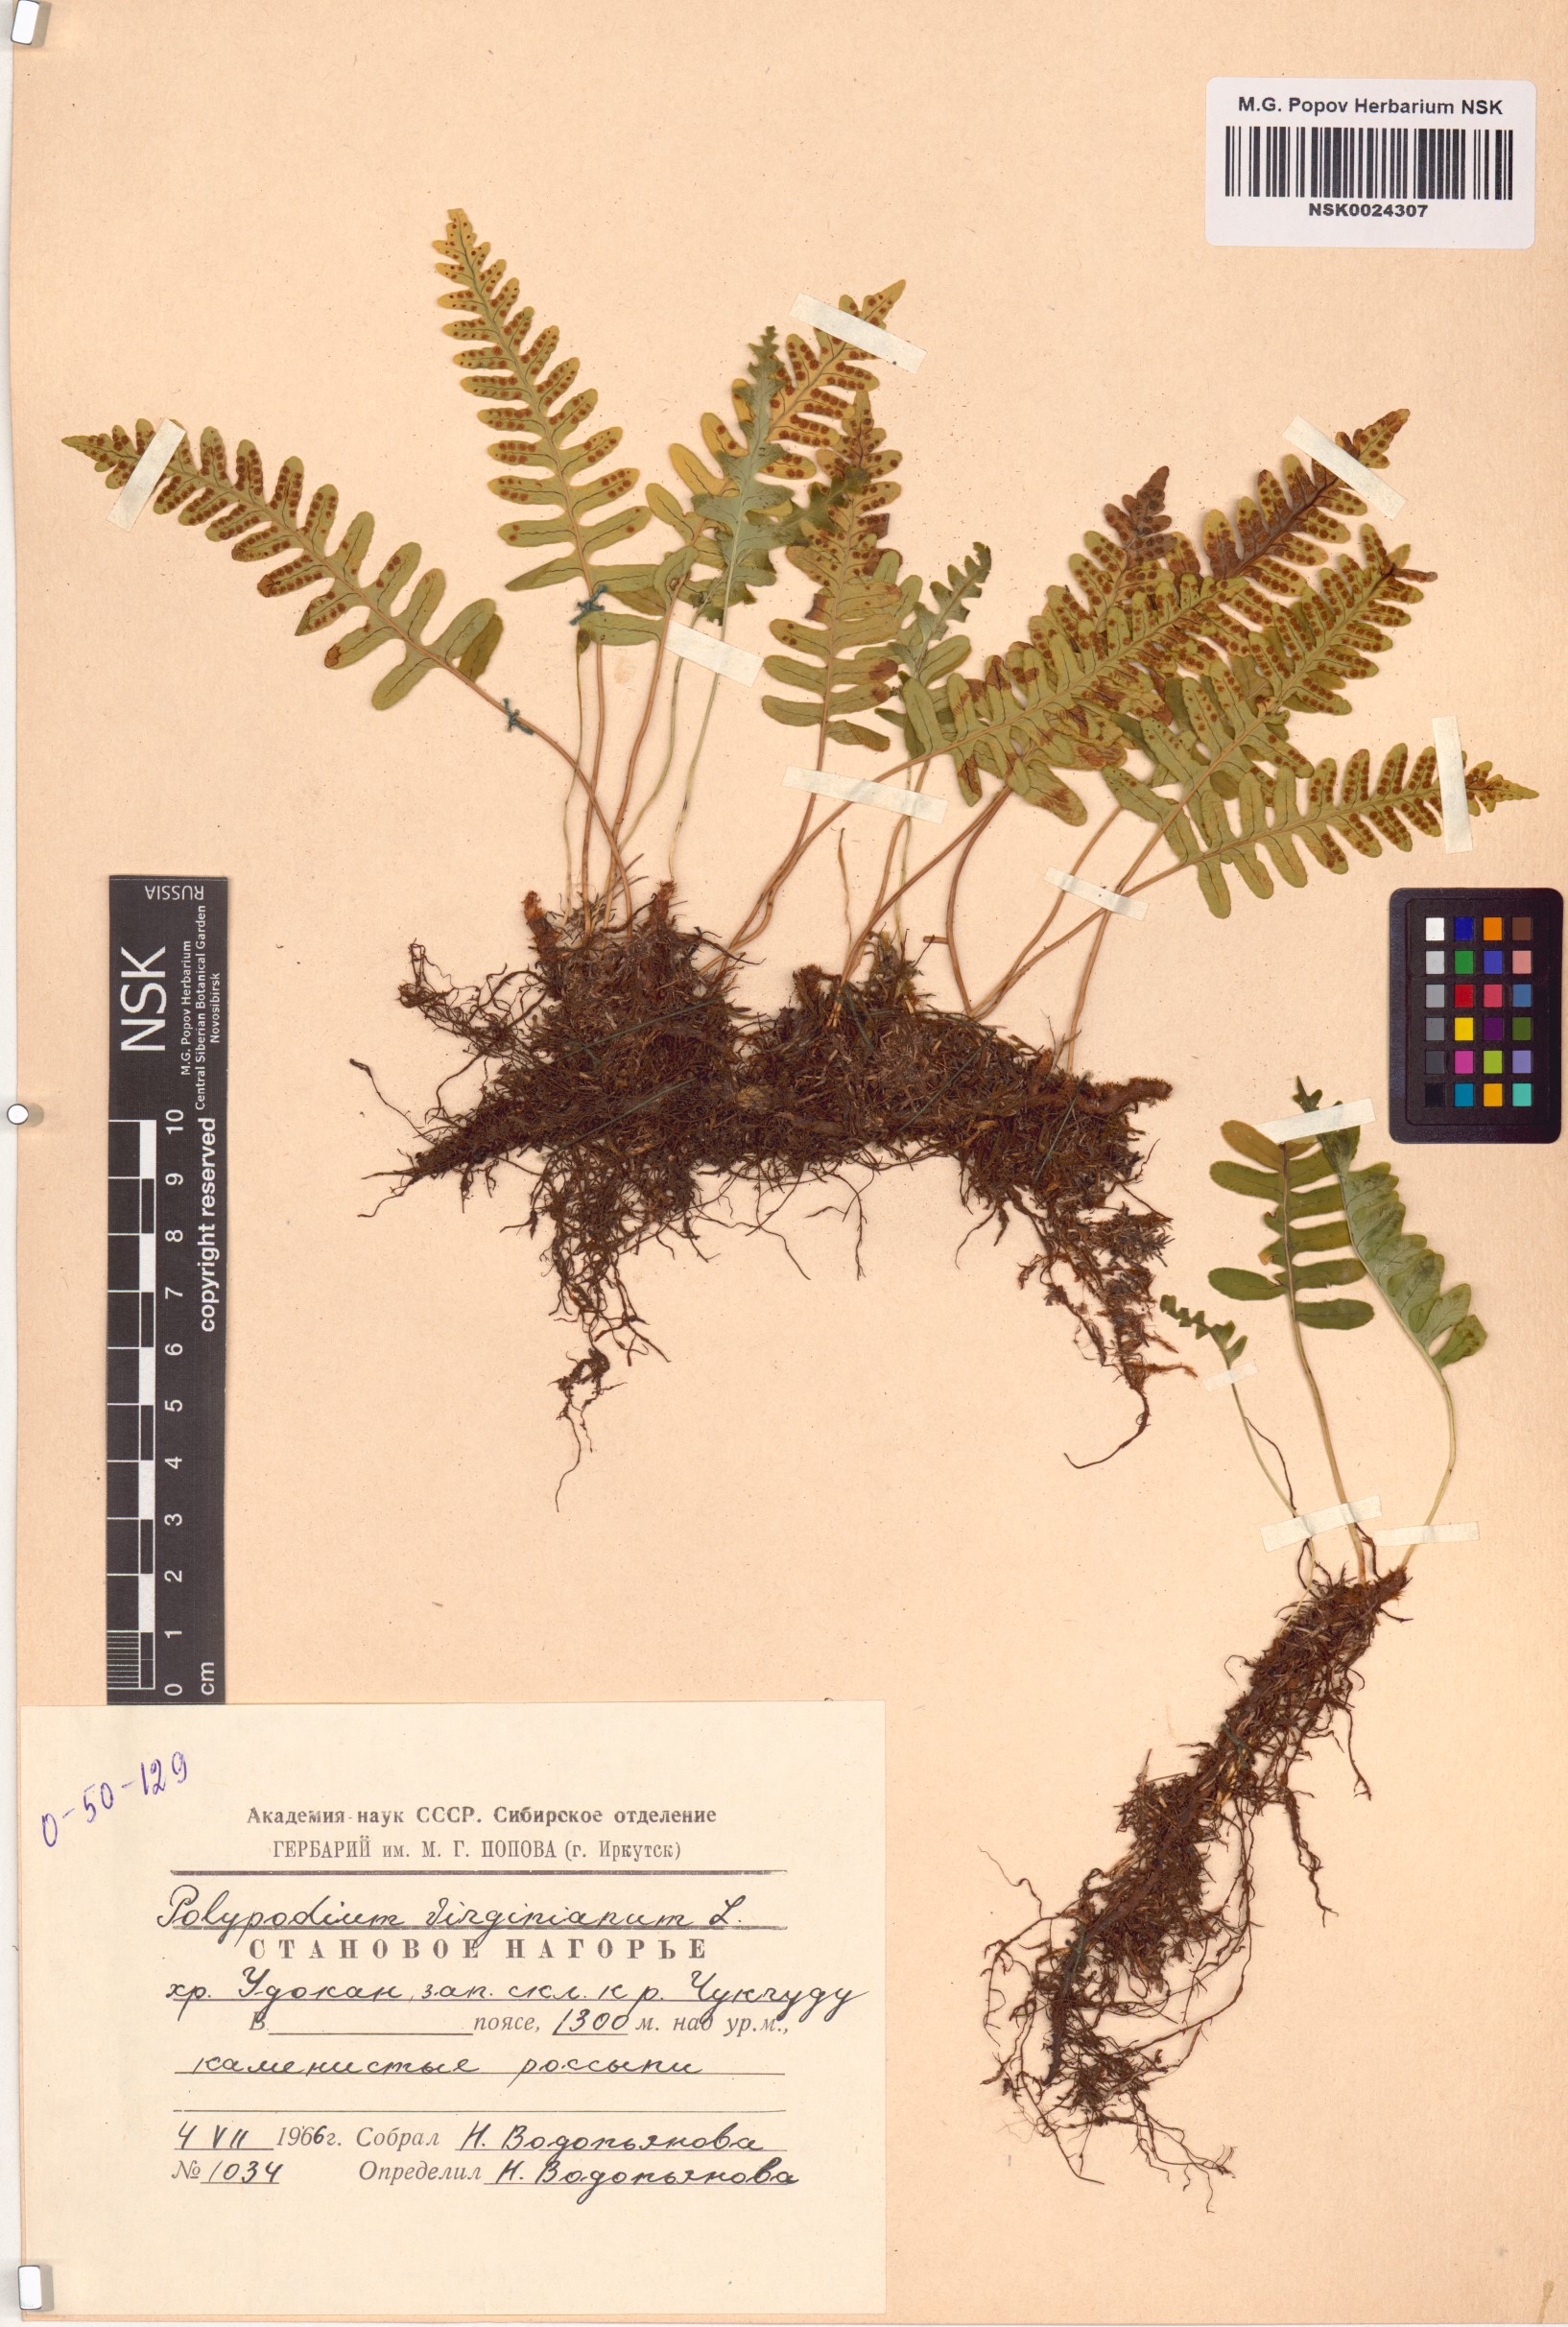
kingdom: Plantae
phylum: Tracheophyta
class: Polypodiopsida
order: Polypodiales
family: Polypodiaceae
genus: Polypodium
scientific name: Polypodium virginianum
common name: American wall fern
